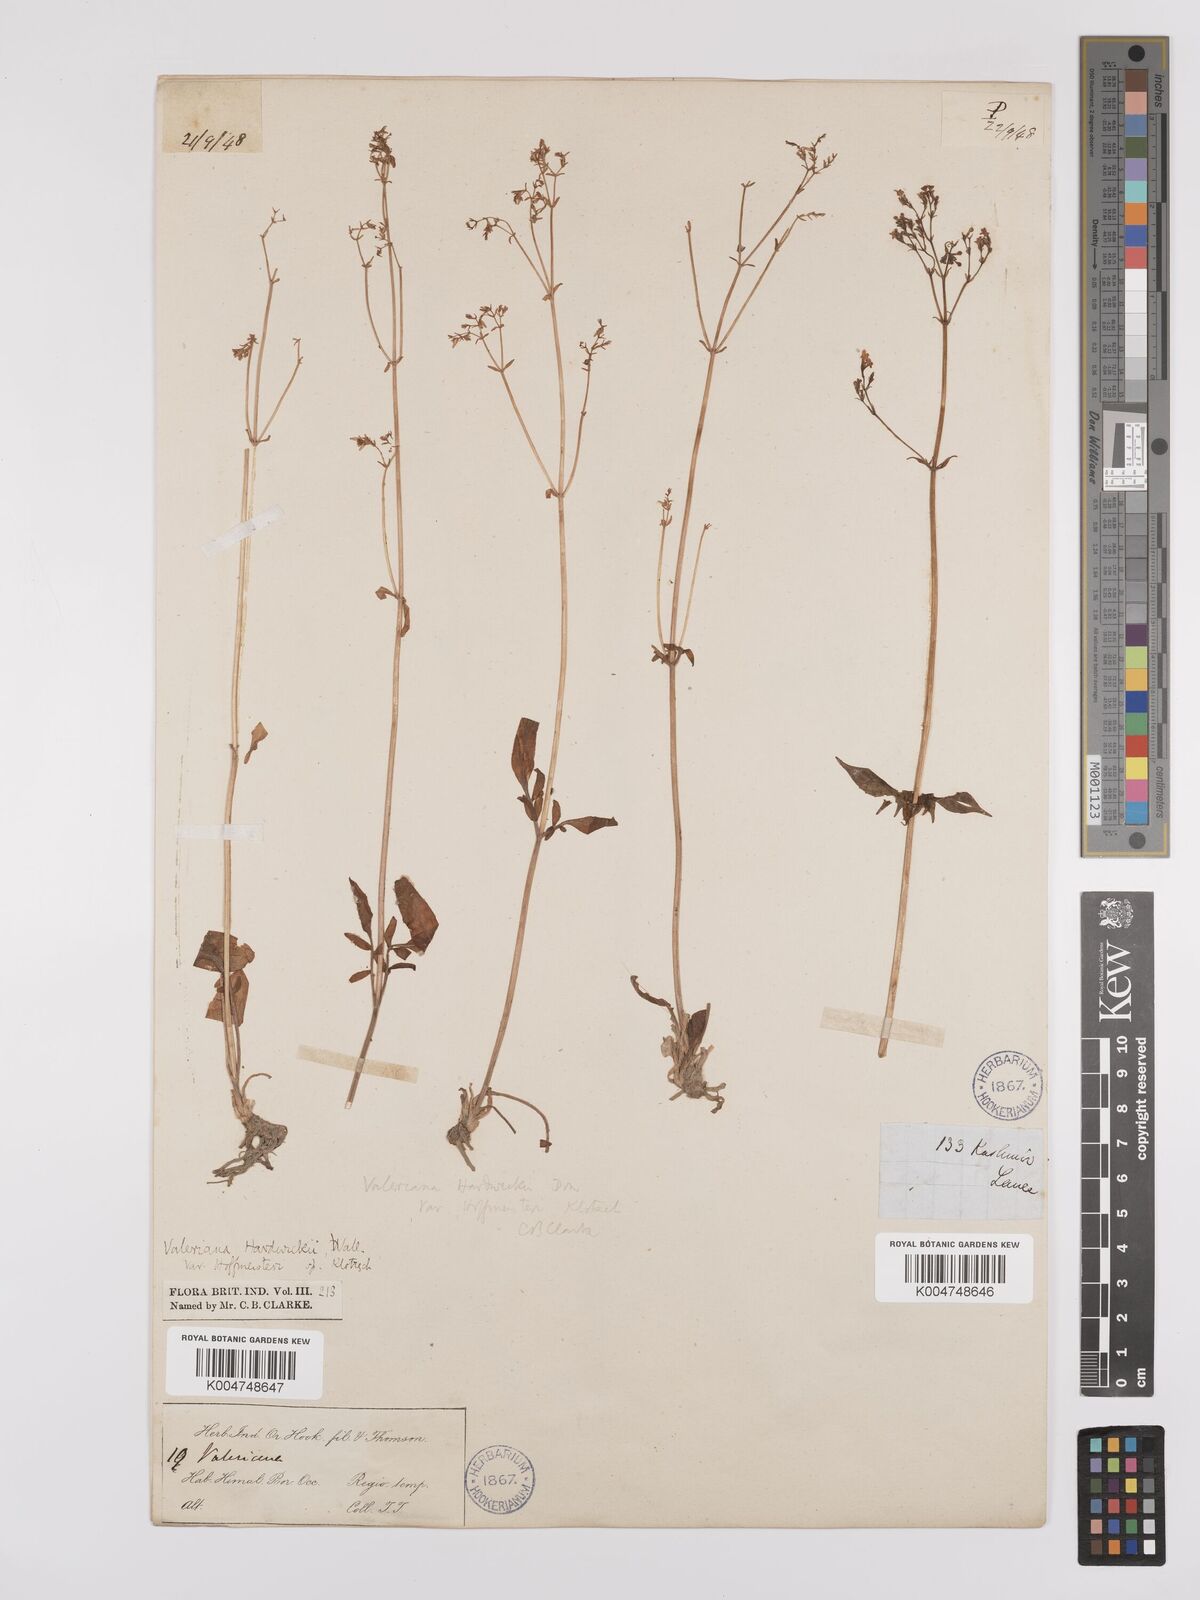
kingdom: Plantae
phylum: Tracheophyta
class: Magnoliopsida
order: Dipsacales
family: Caprifoliaceae
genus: Valeriana
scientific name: Valeriana hardwickei
